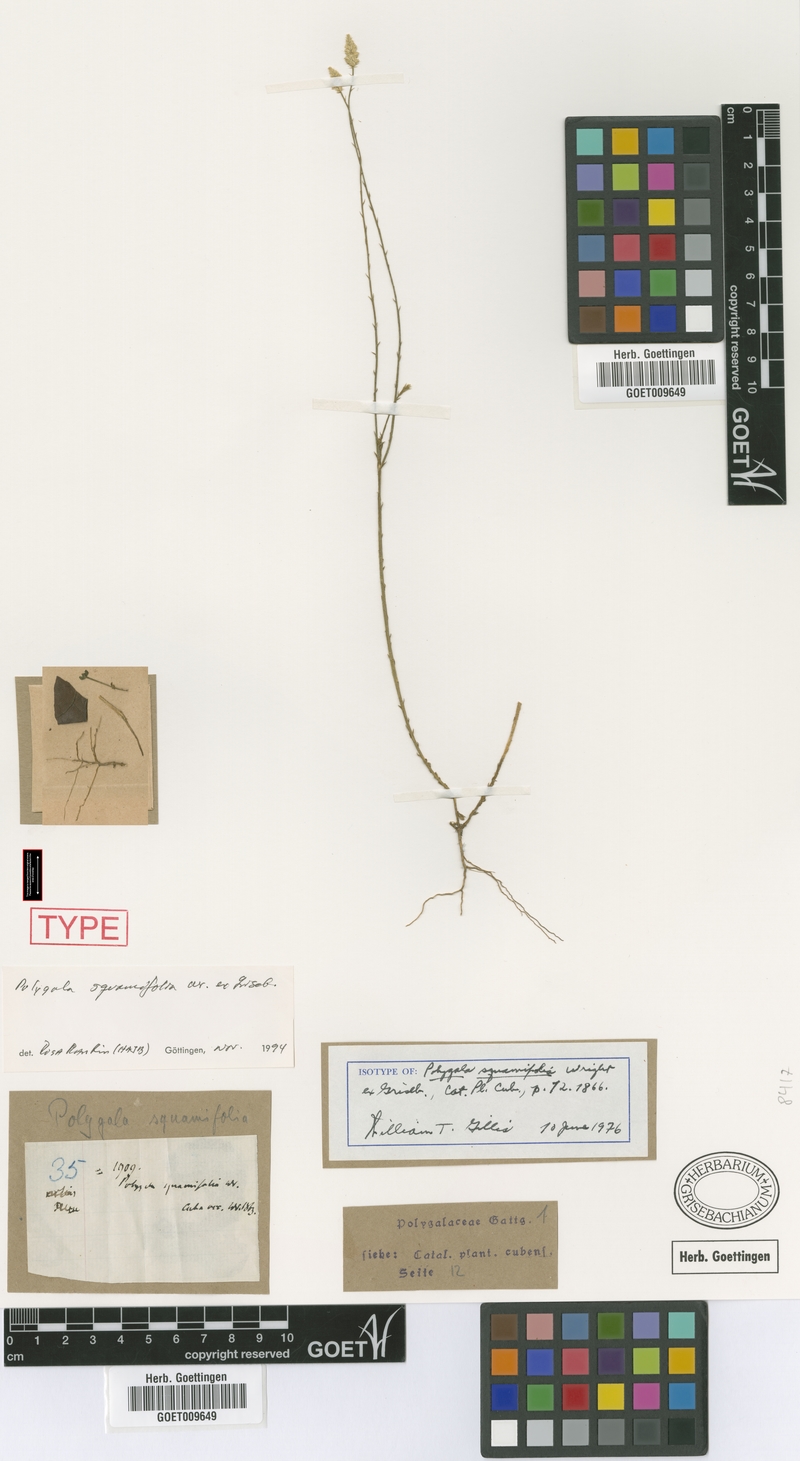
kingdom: Plantae
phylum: Tracheophyta
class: Magnoliopsida
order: Fabales
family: Polygalaceae
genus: Polygala
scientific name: Polygala squamifolia
